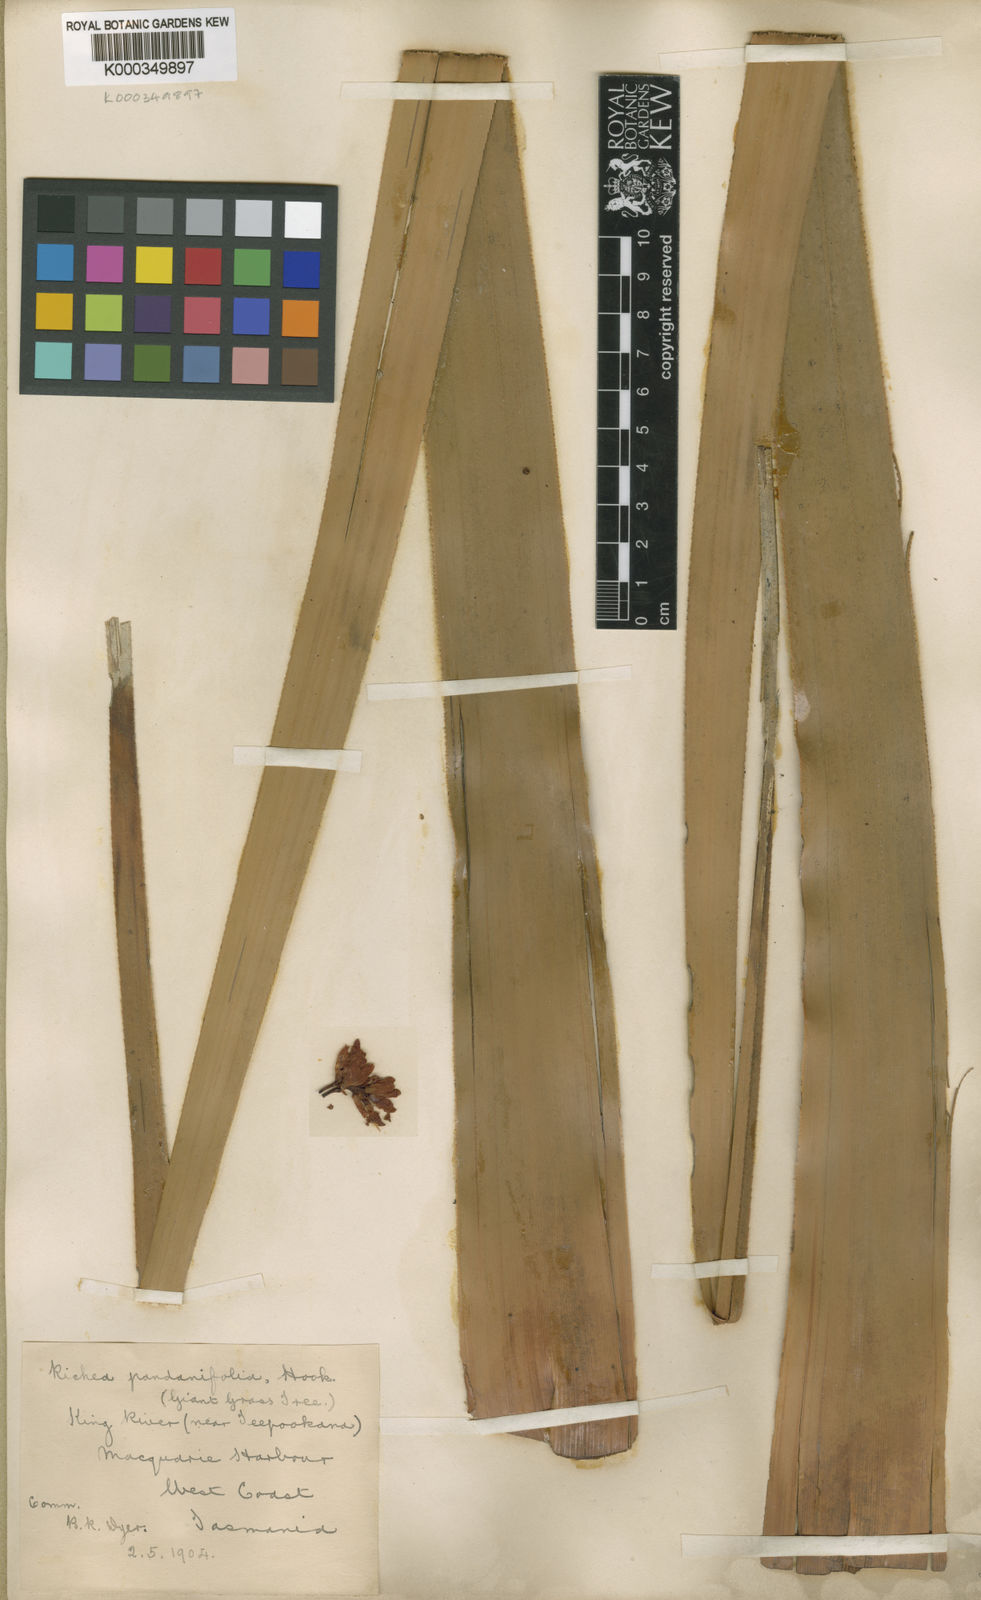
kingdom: Plantae
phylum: Tracheophyta
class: Magnoliopsida
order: Ericales
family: Ericaceae
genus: Dracophyllum
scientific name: Dracophyllum pandanifolium
